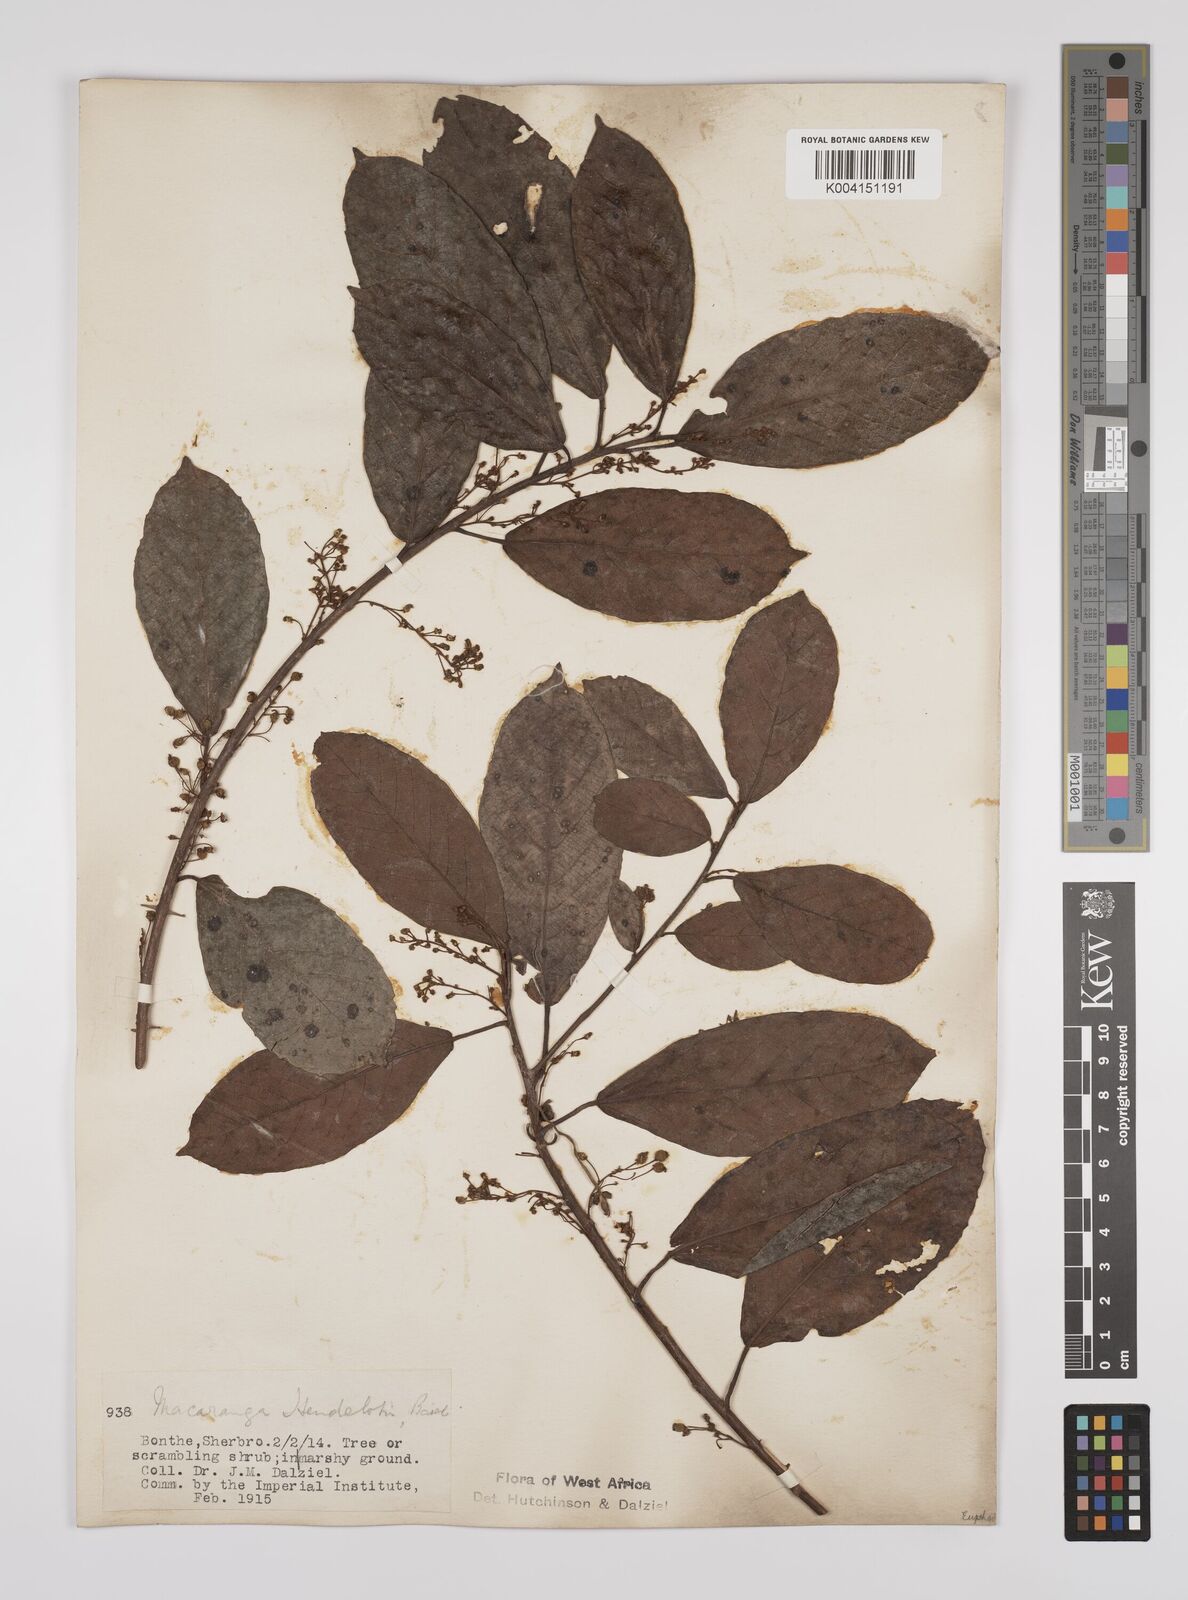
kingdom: Plantae
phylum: Tracheophyta
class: Magnoliopsida
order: Malpighiales
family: Euphorbiaceae
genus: Macaranga
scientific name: Macaranga heudelotii
